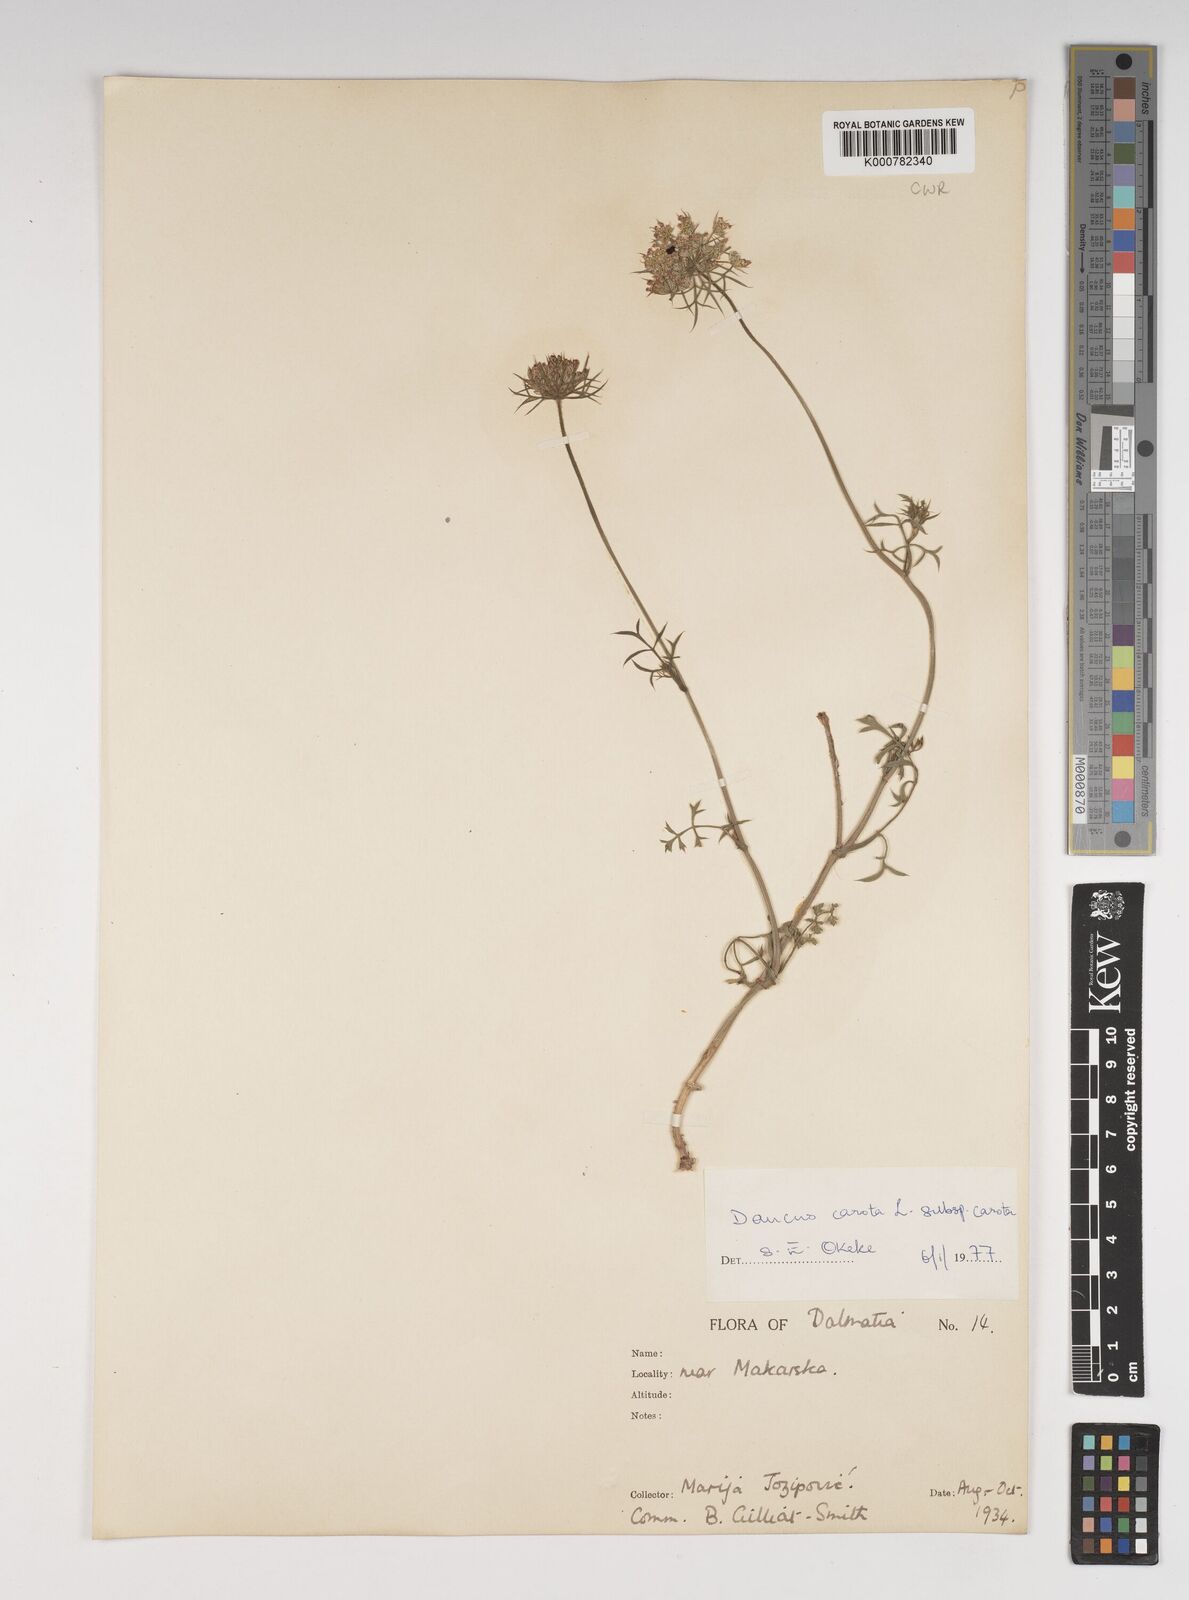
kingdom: Plantae
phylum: Tracheophyta
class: Magnoliopsida
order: Apiales
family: Apiaceae
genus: Daucus
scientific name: Daucus carota
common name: Wild carrot
